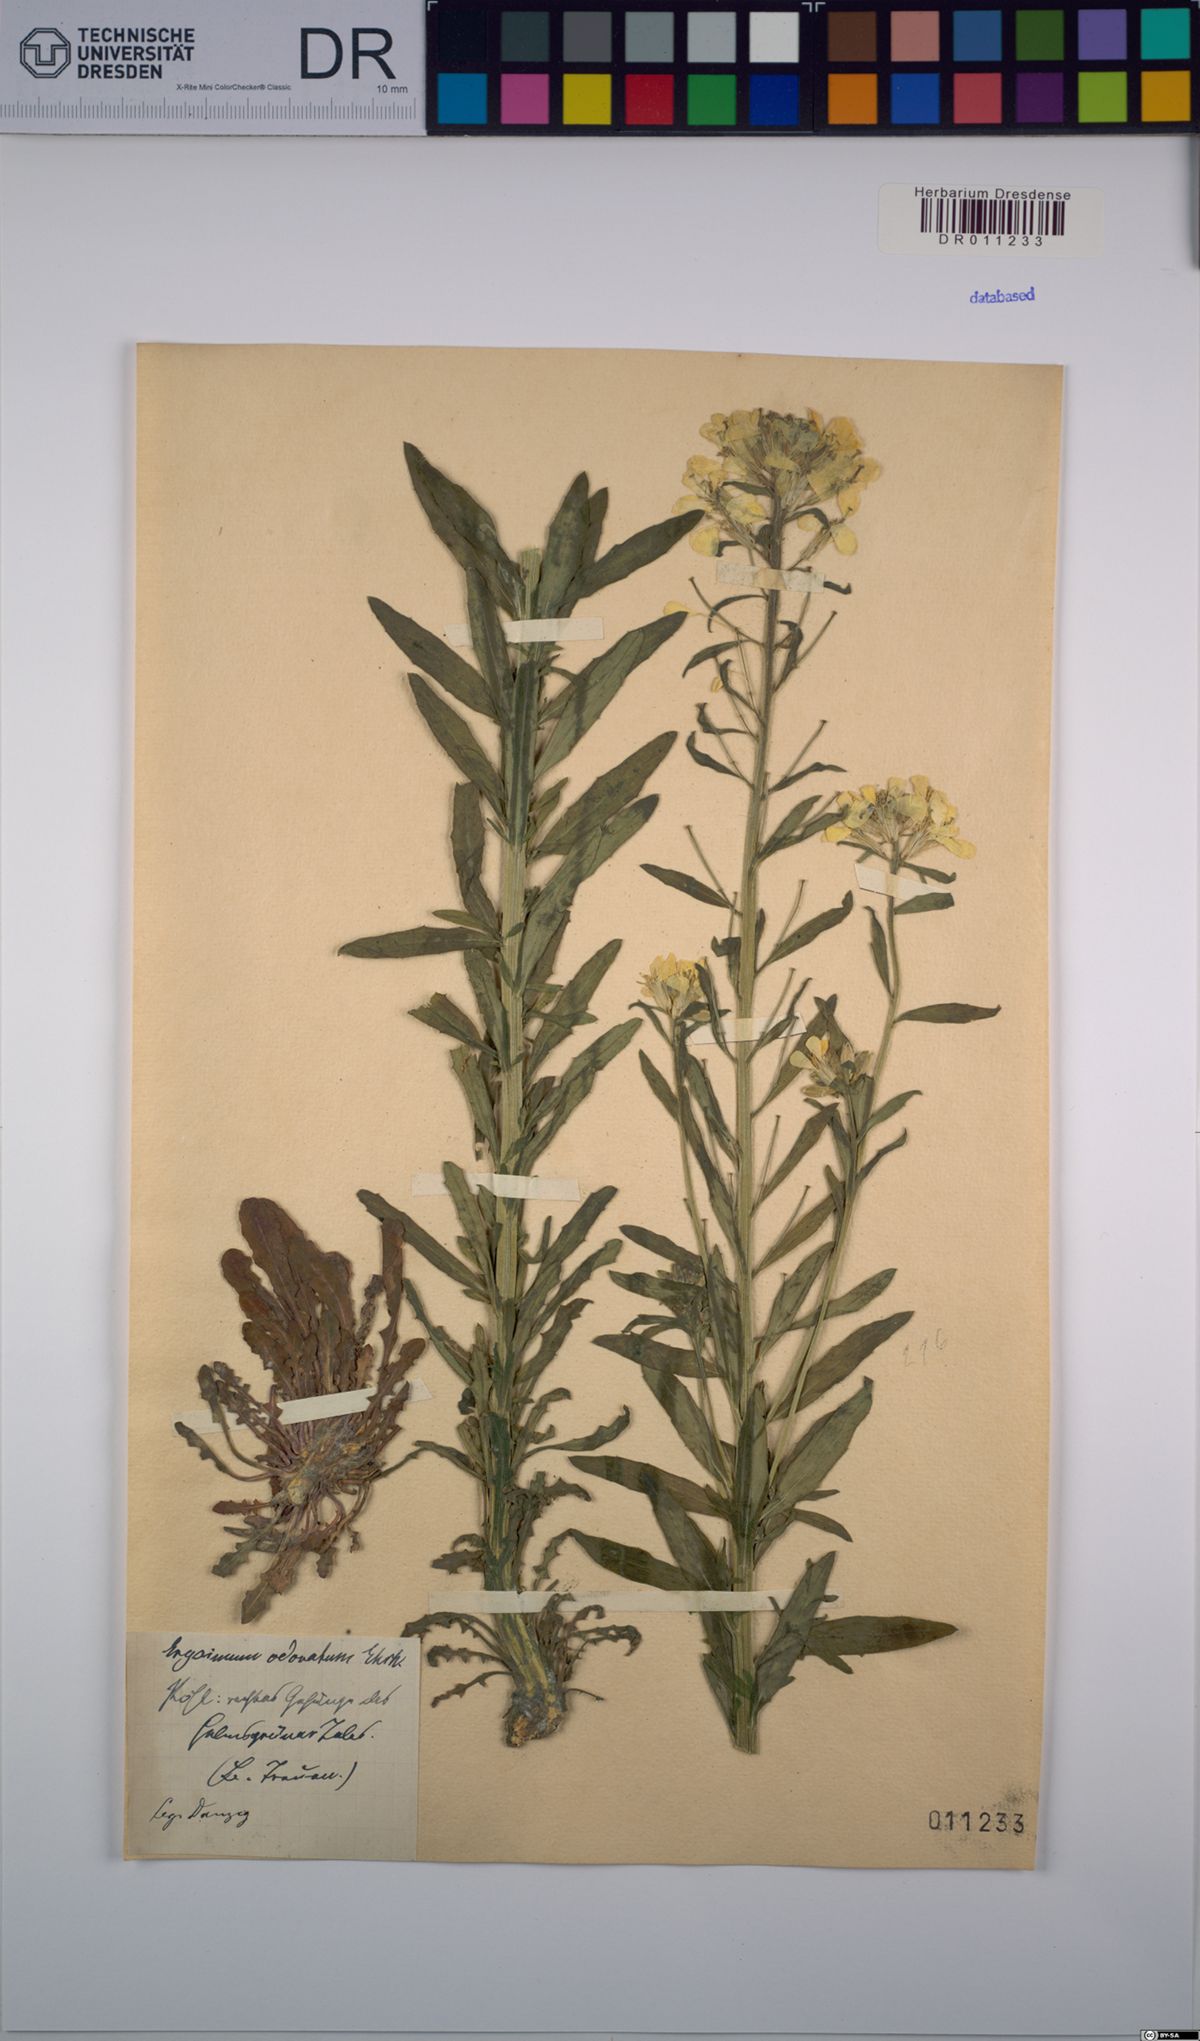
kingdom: Plantae
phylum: Tracheophyta
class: Magnoliopsida
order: Brassicales
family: Brassicaceae
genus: Erysimum
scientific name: Erysimum odoratum
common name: Smelly wallflower
